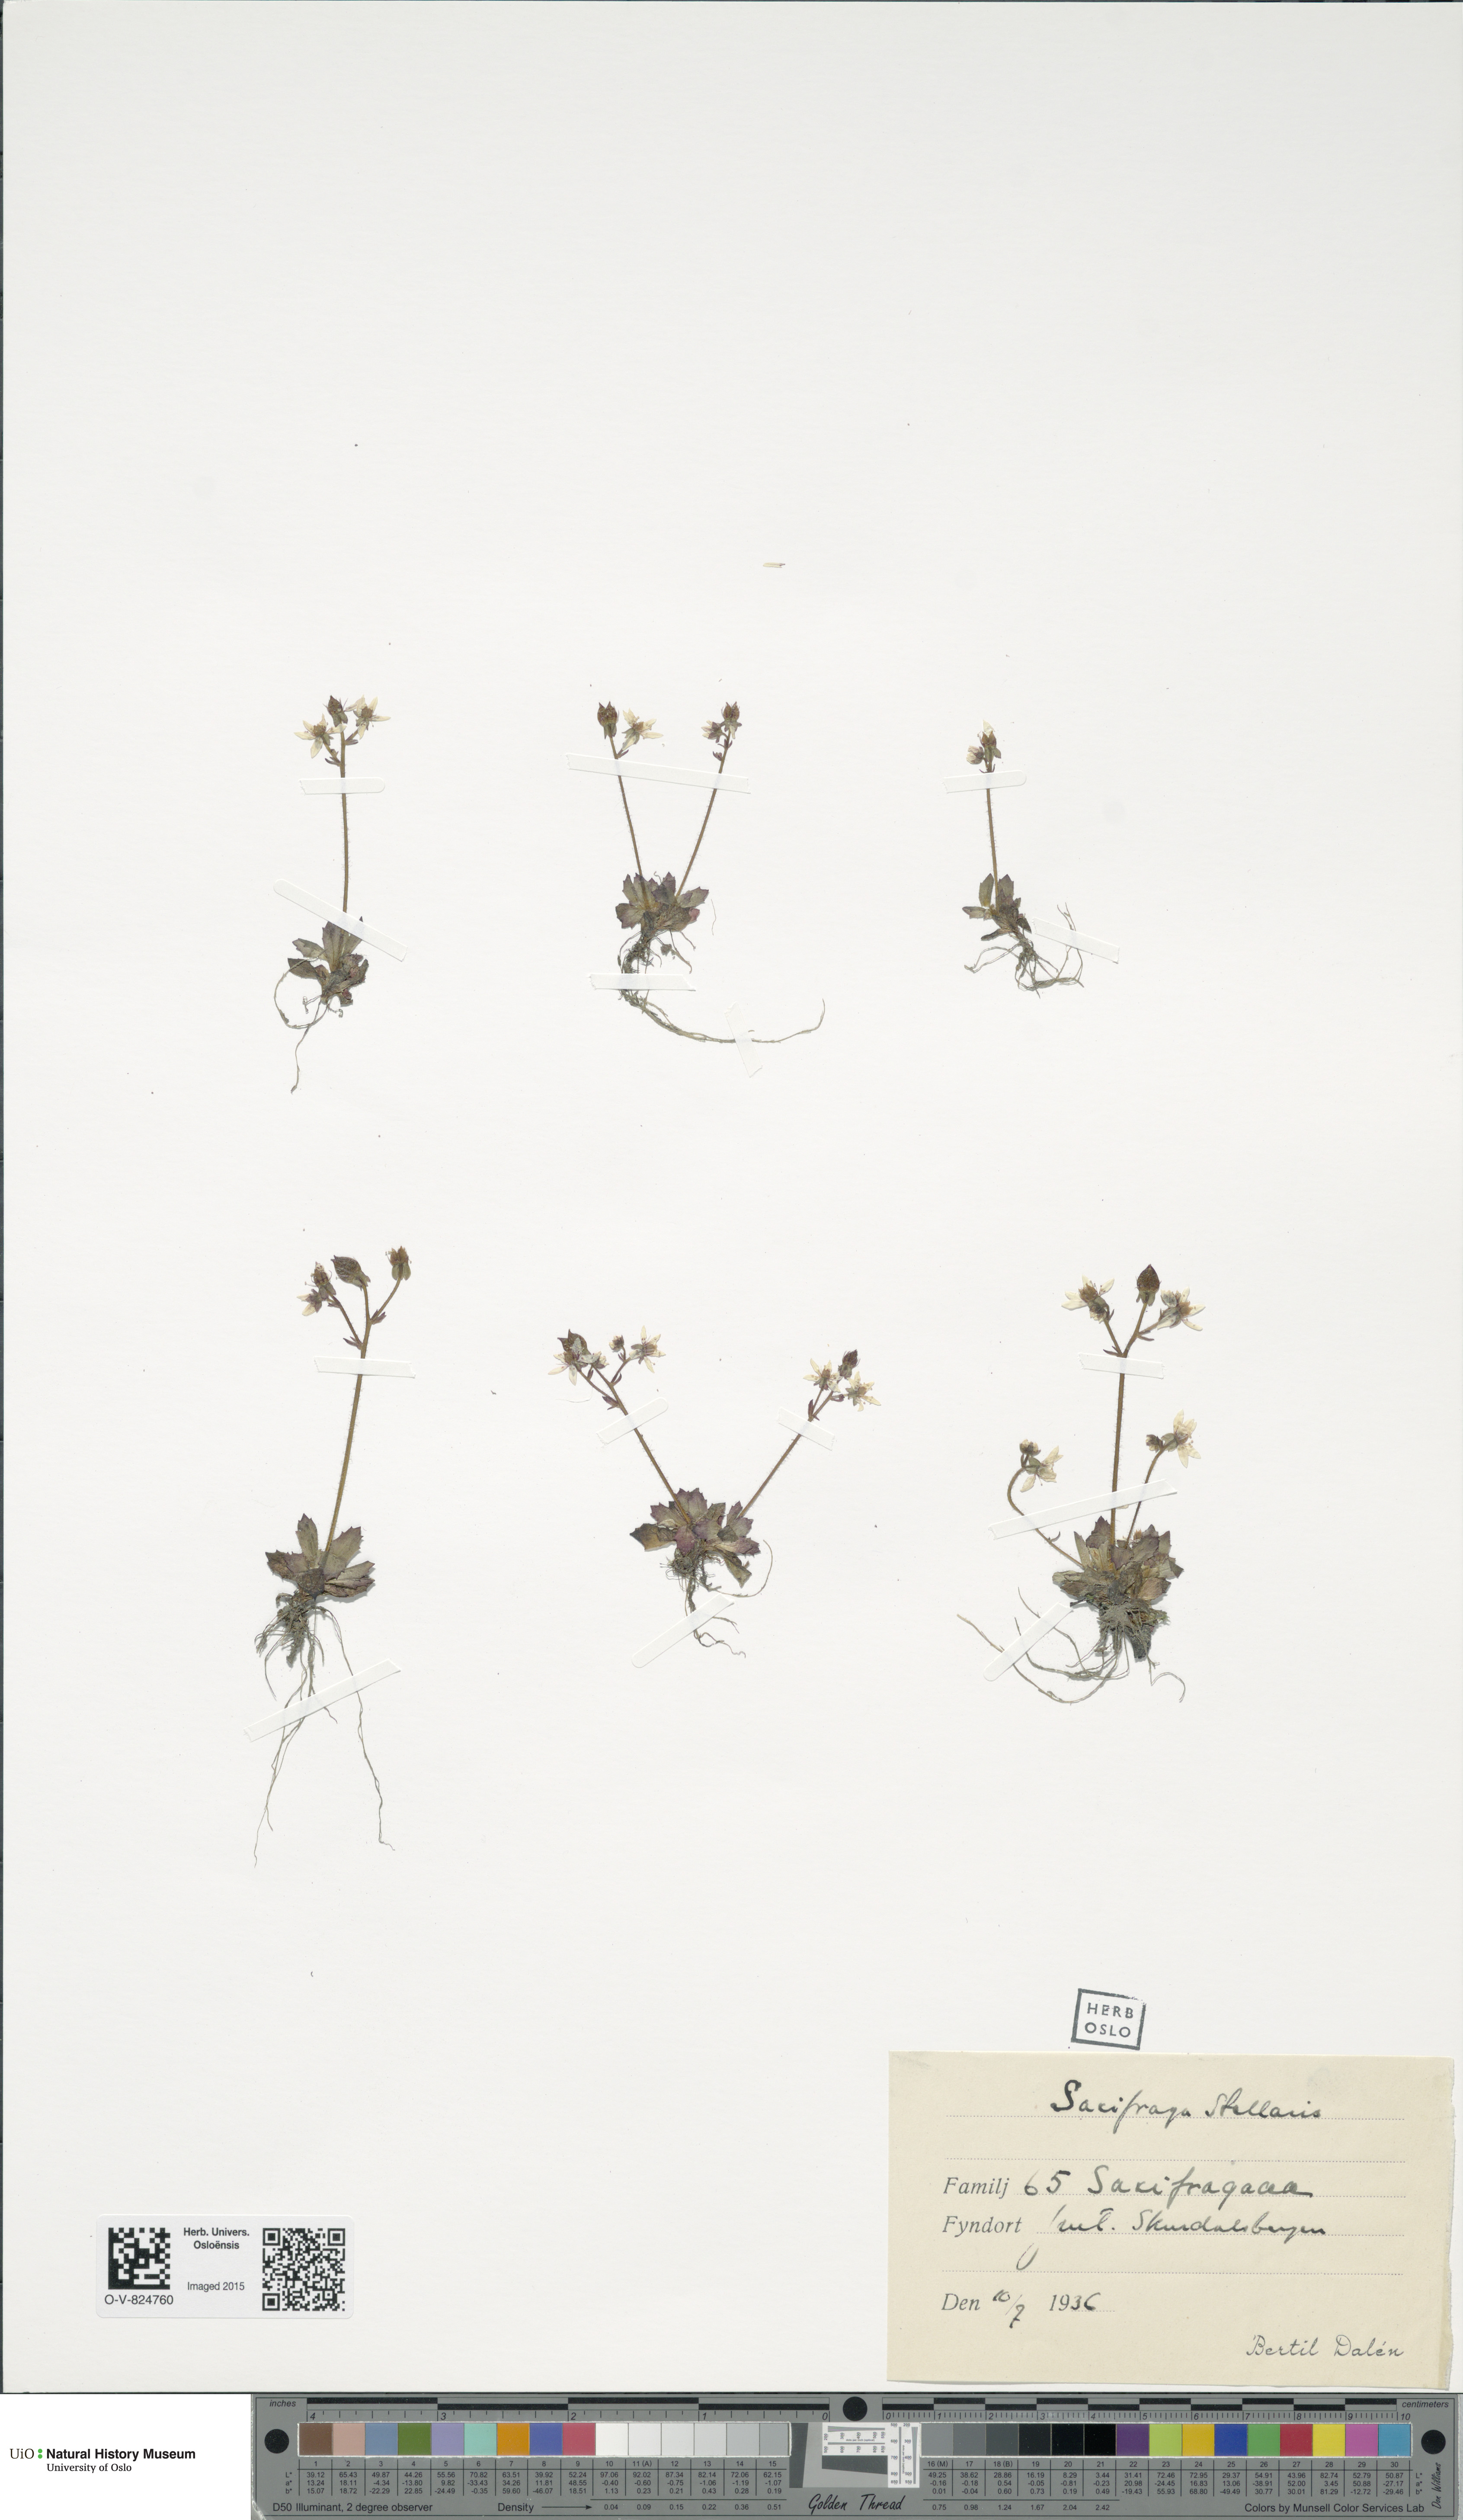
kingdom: Plantae
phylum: Tracheophyta
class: Magnoliopsida
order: Saxifragales
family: Saxifragaceae
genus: Micranthes
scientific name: Micranthes stellaris
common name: Starry saxifrage
